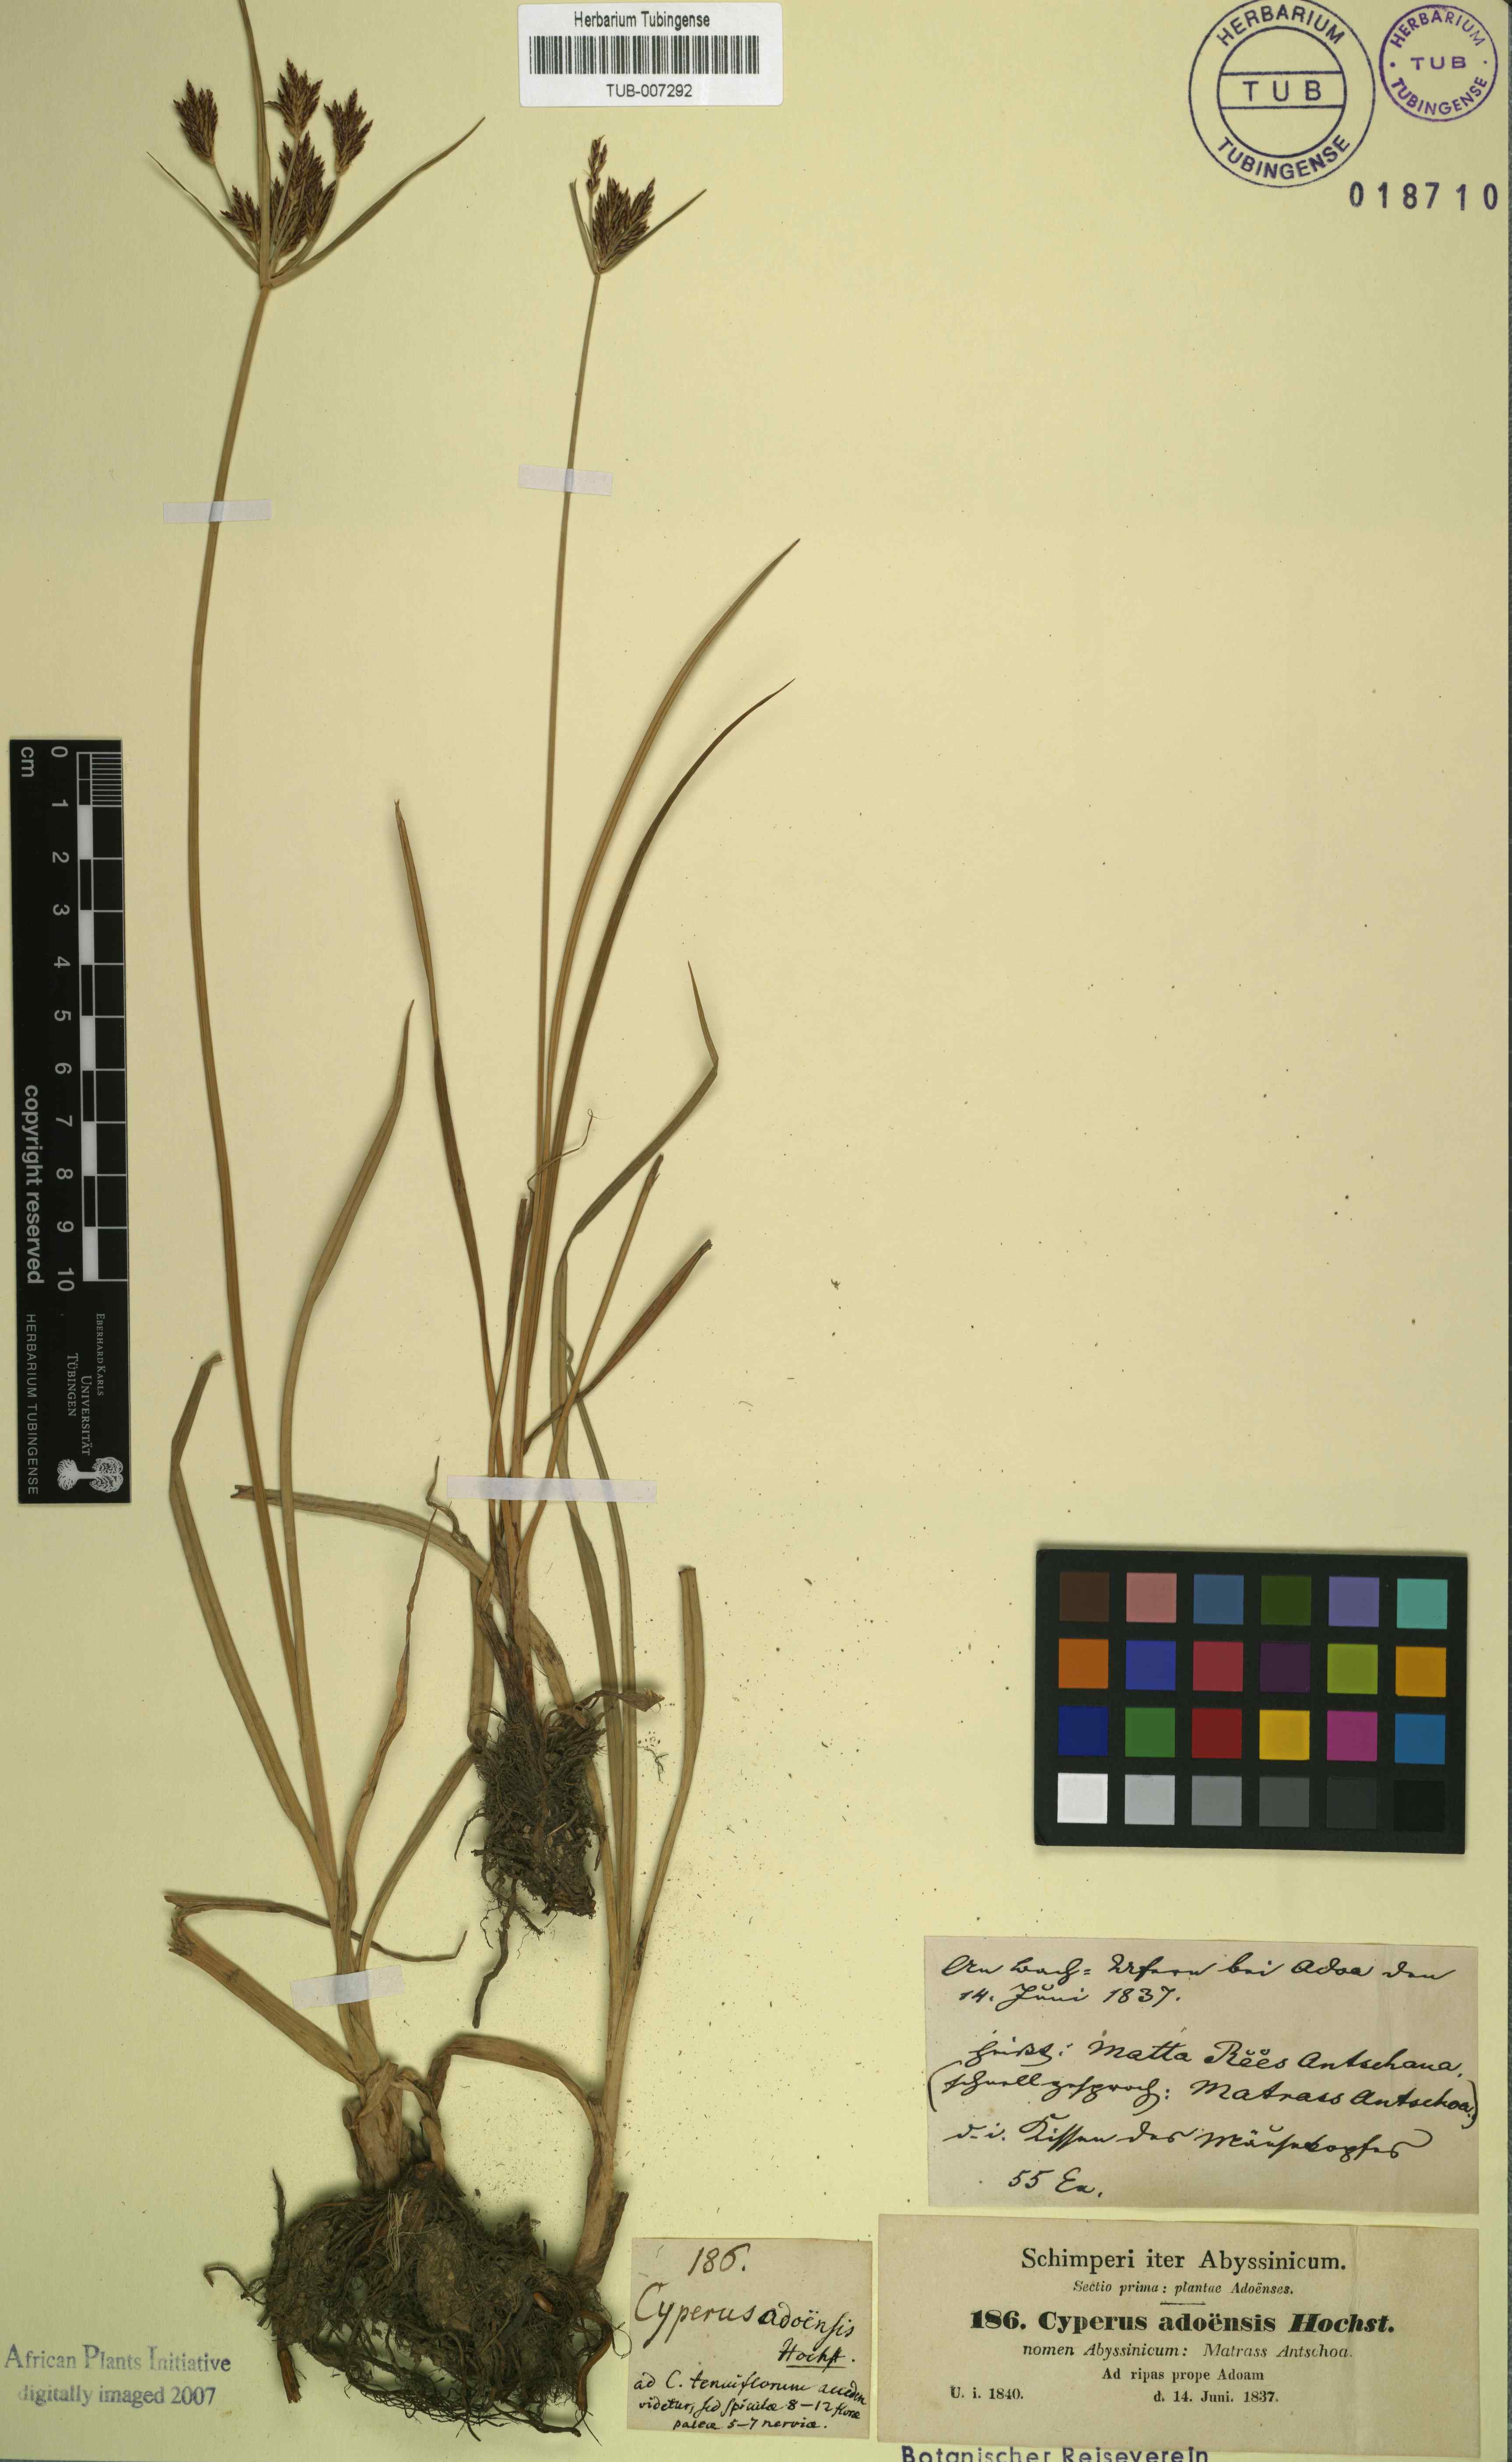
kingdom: Plantae
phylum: Tracheophyta
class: Liliopsida
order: Poales
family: Cyperaceae
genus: Cyperus
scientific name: Cyperus rigidifolius
